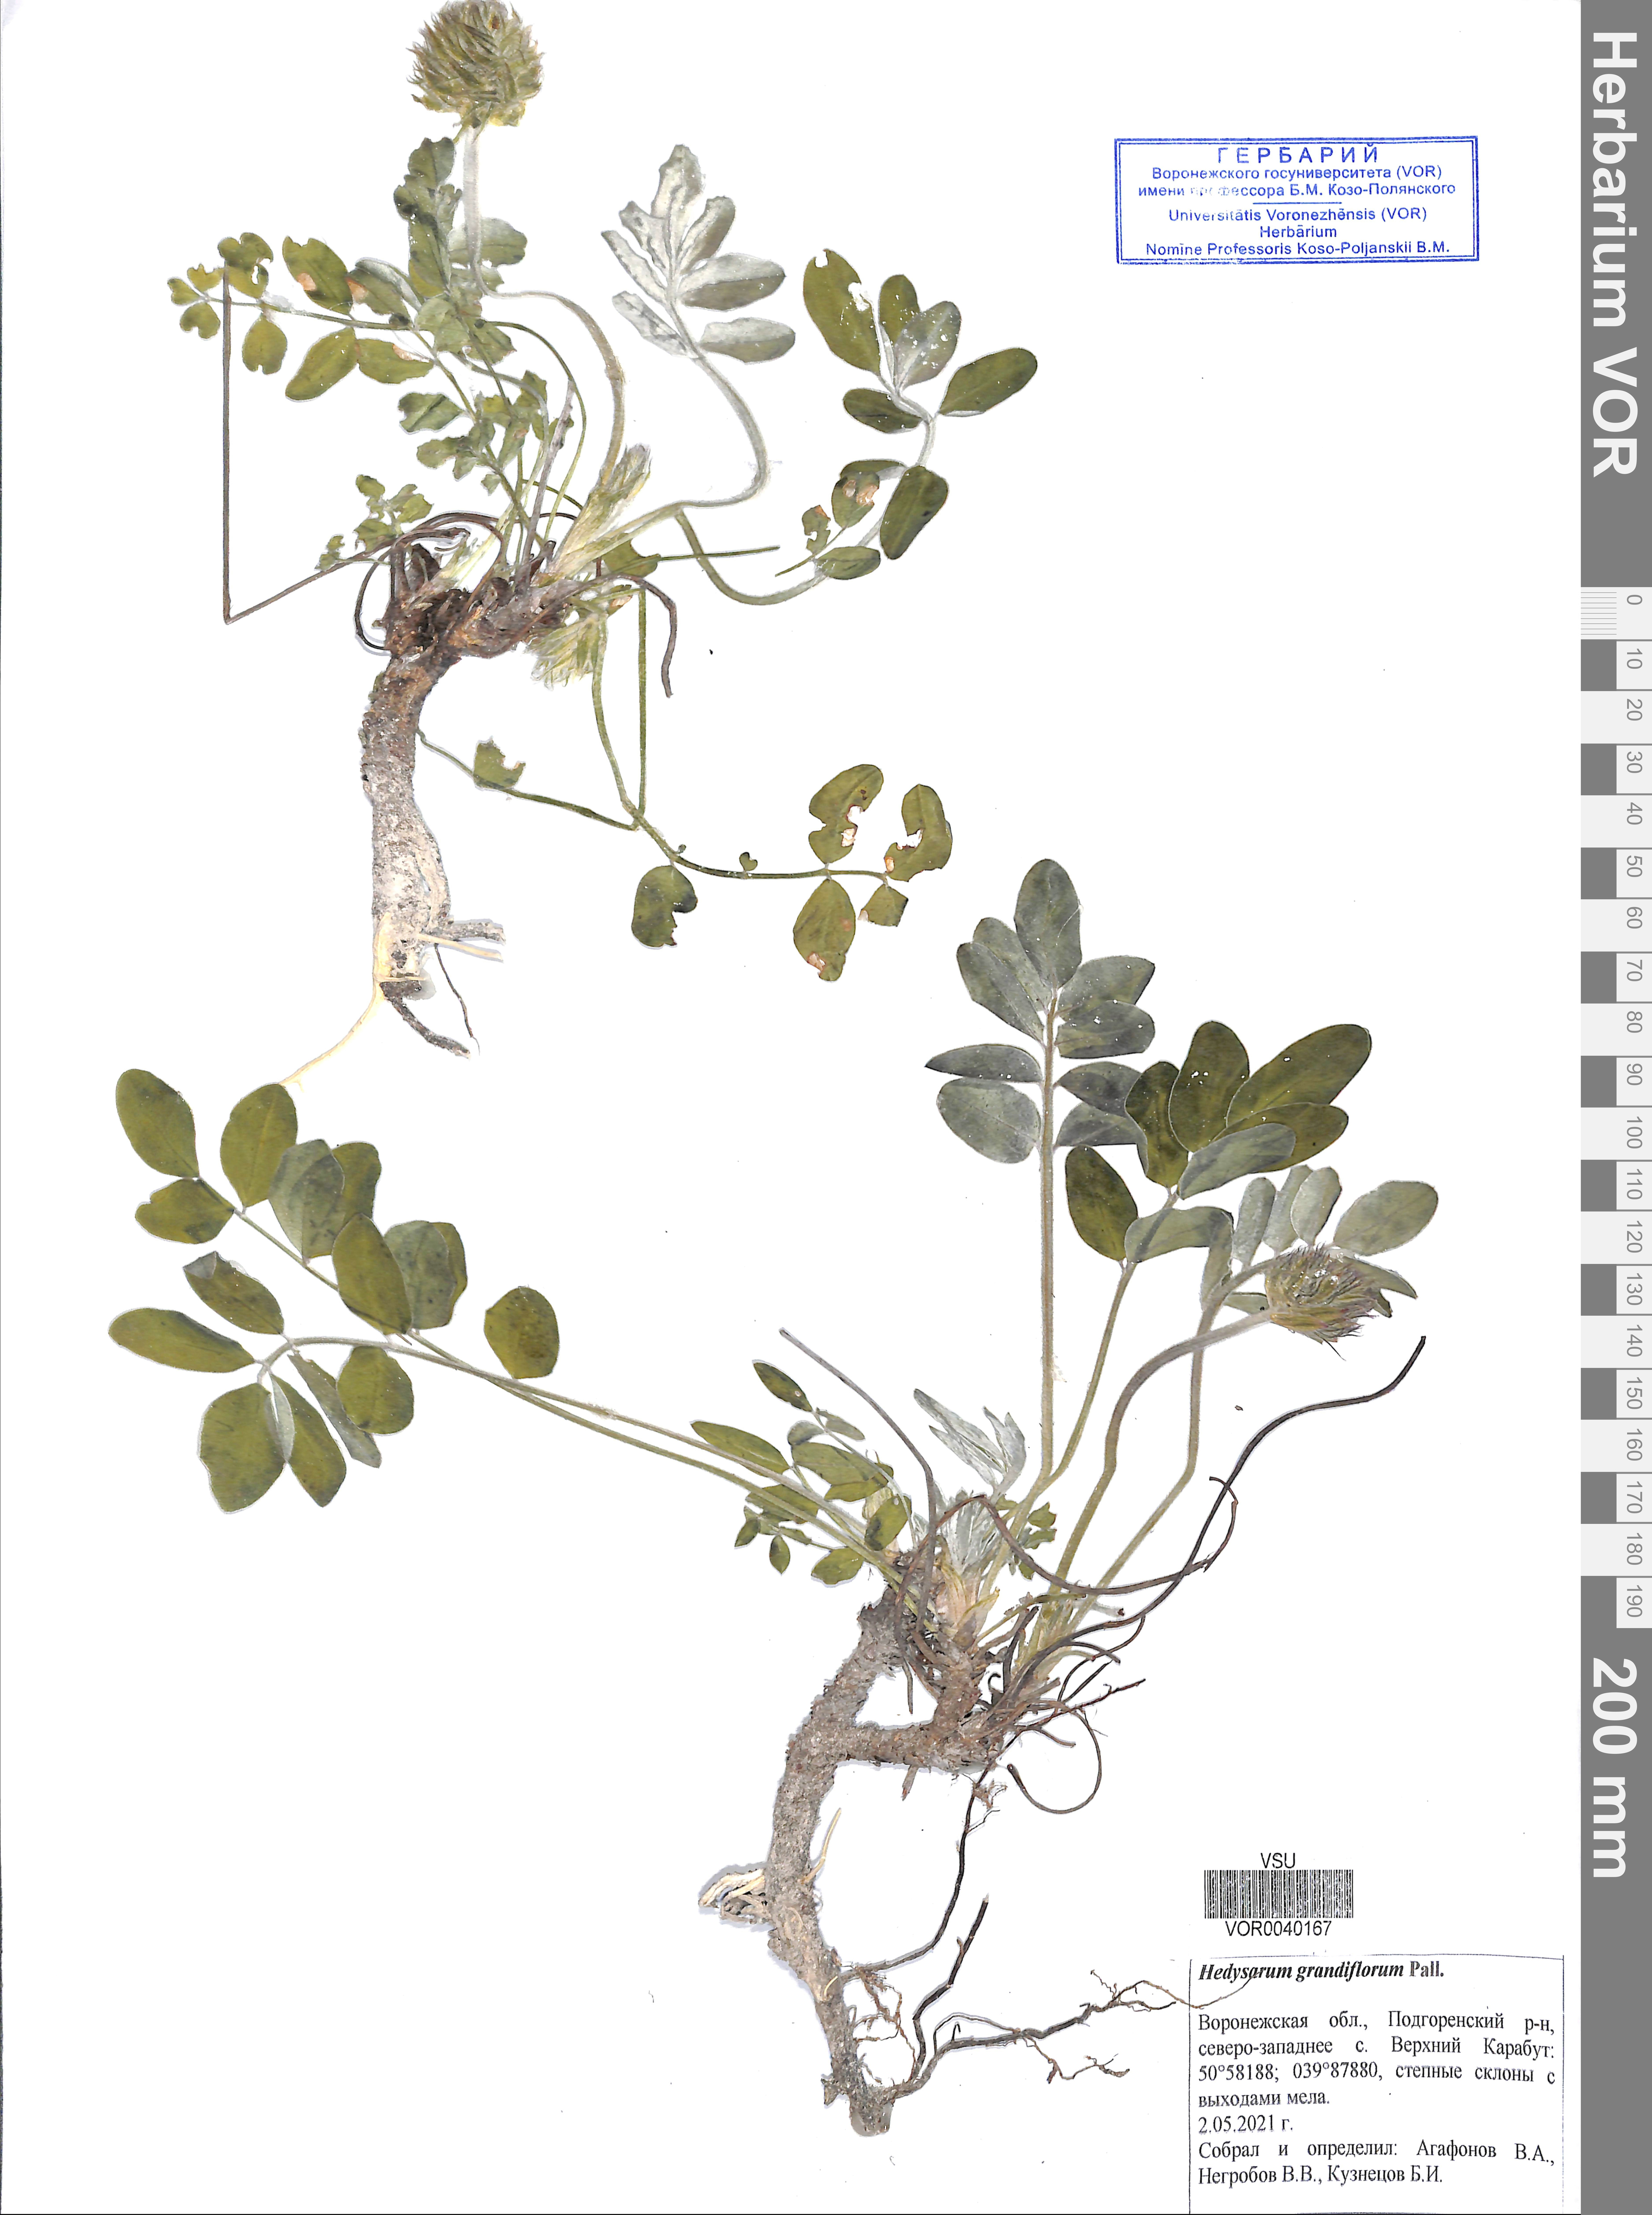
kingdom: Plantae
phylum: Tracheophyta
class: Magnoliopsida
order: Fabales
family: Fabaceae
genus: Hedysarum
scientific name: Hedysarum grandiflorum
